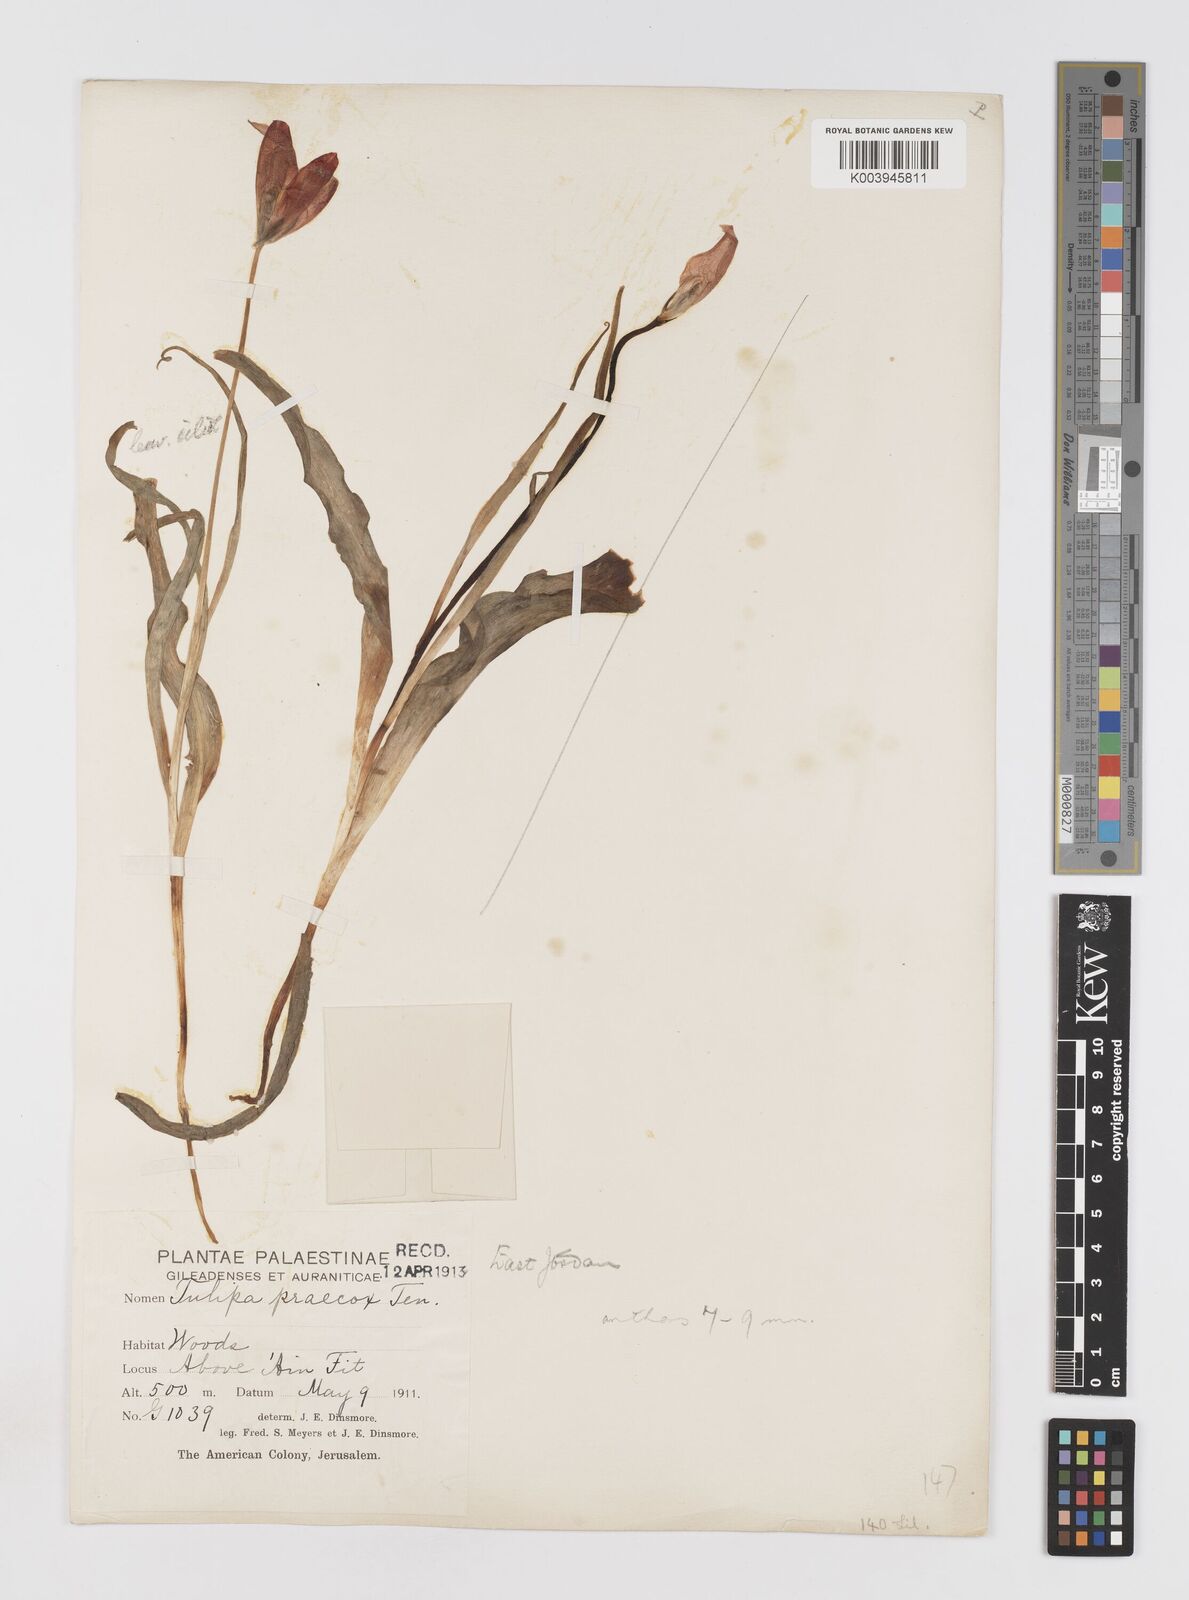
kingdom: Plantae
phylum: Tracheophyta
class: Liliopsida
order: Liliales
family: Liliaceae
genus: Tulipa
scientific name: Tulipa aleppensis
